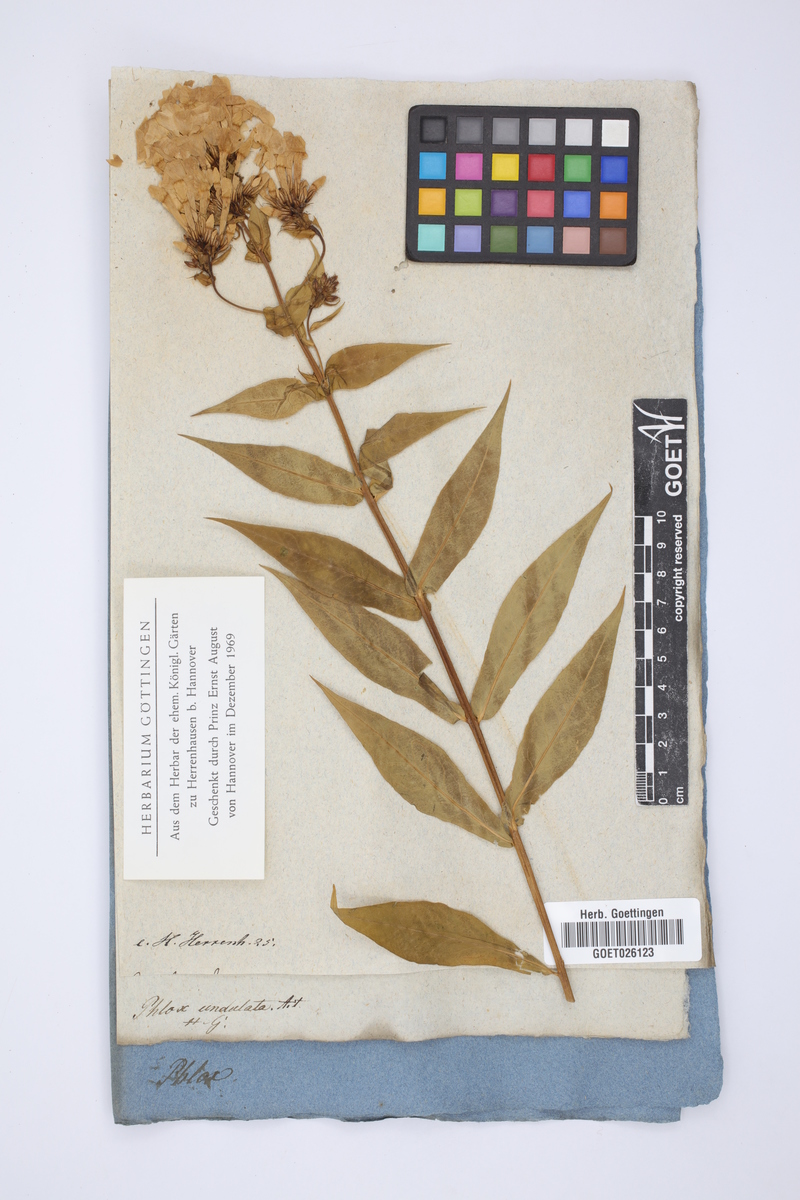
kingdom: Plantae
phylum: Tracheophyta
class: Magnoliopsida
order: Ericales
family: Polemoniaceae
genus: Phlox
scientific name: Phlox paniculata
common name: Fall phlox
